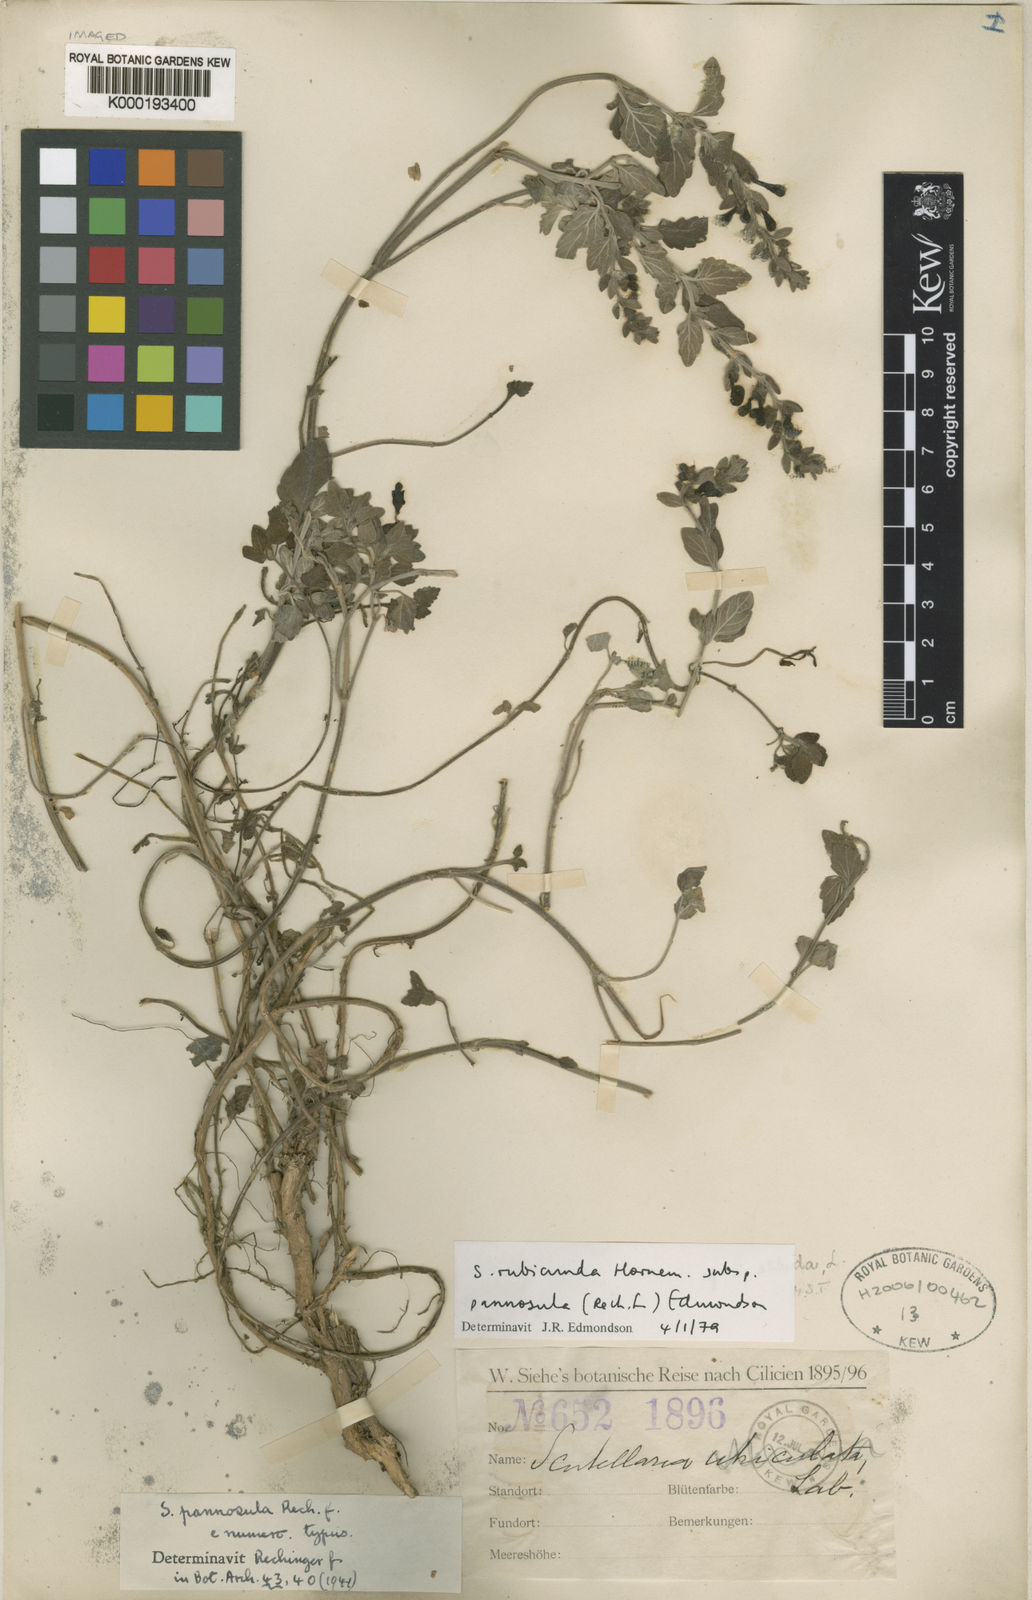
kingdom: Plantae
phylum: Tracheophyta
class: Magnoliopsida
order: Lamiales
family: Lamiaceae
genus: Scutellaria
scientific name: Scutellaria columnae
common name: Large skullcap
